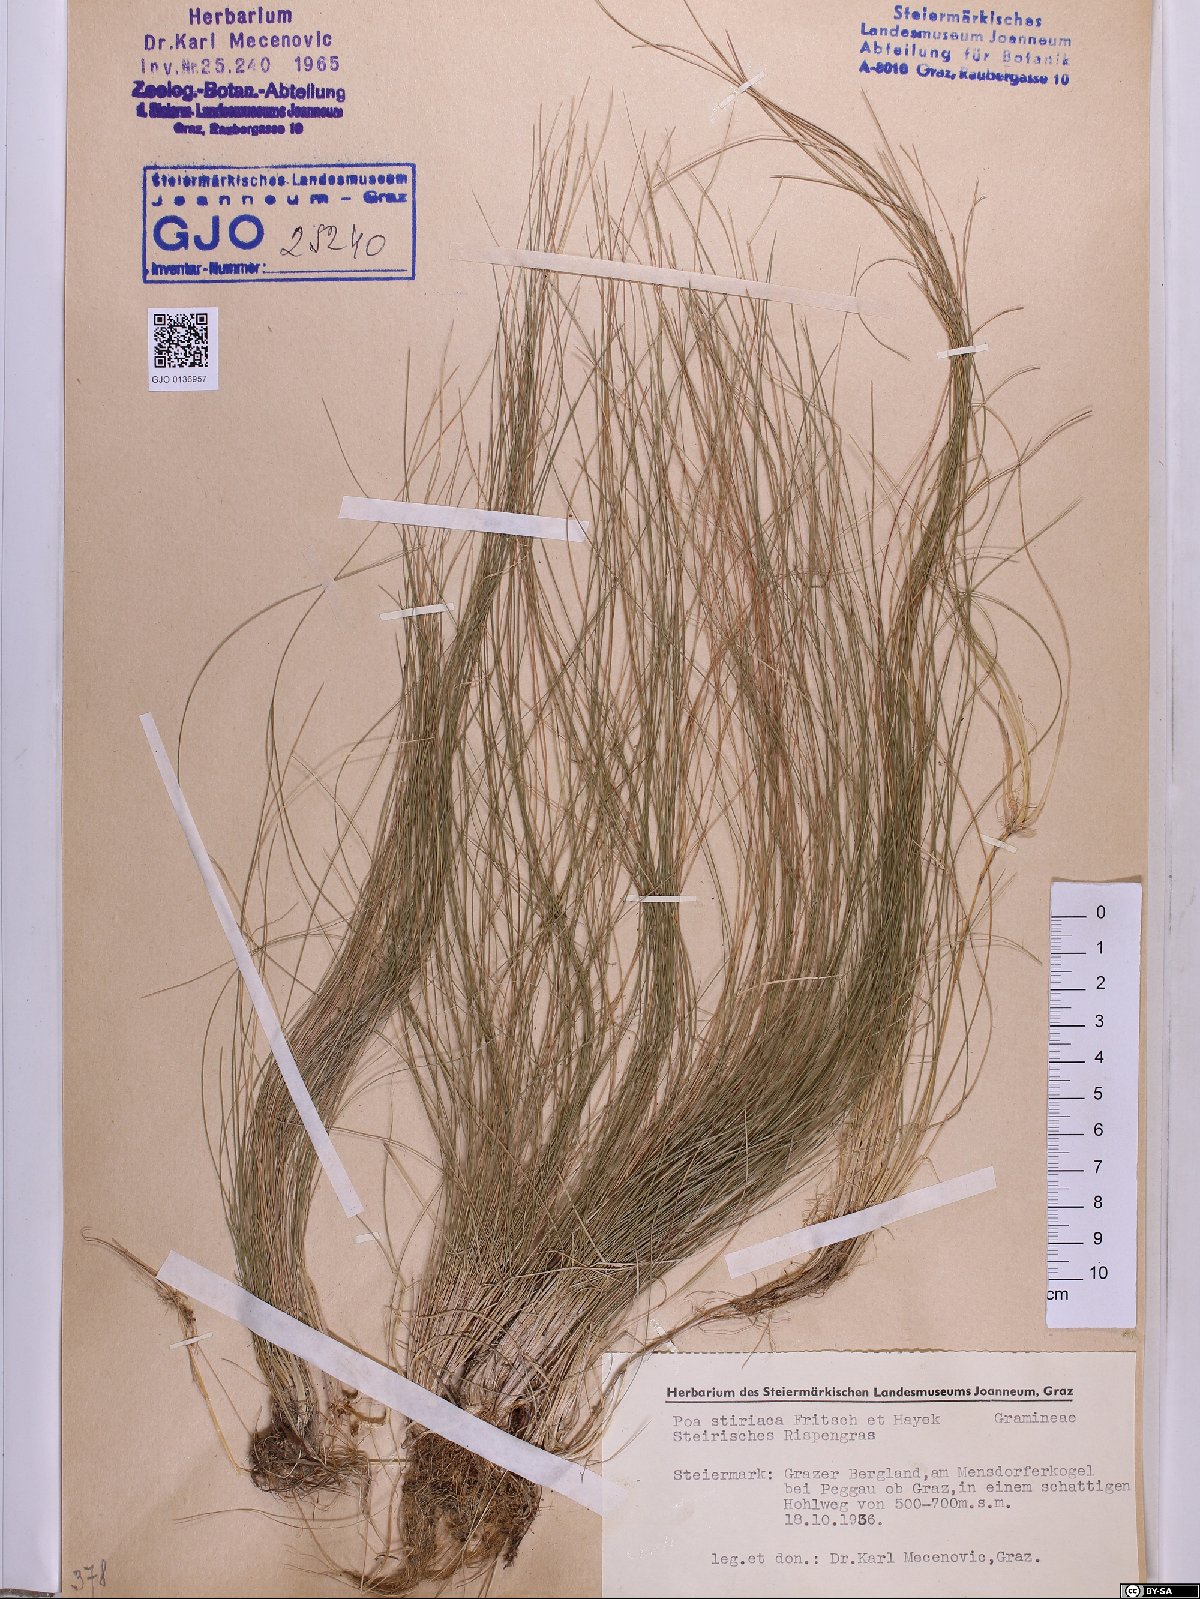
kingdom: Plantae
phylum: Tracheophyta
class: Liliopsida
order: Poales
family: Poaceae
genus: Poa
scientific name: Poa stiriaca
